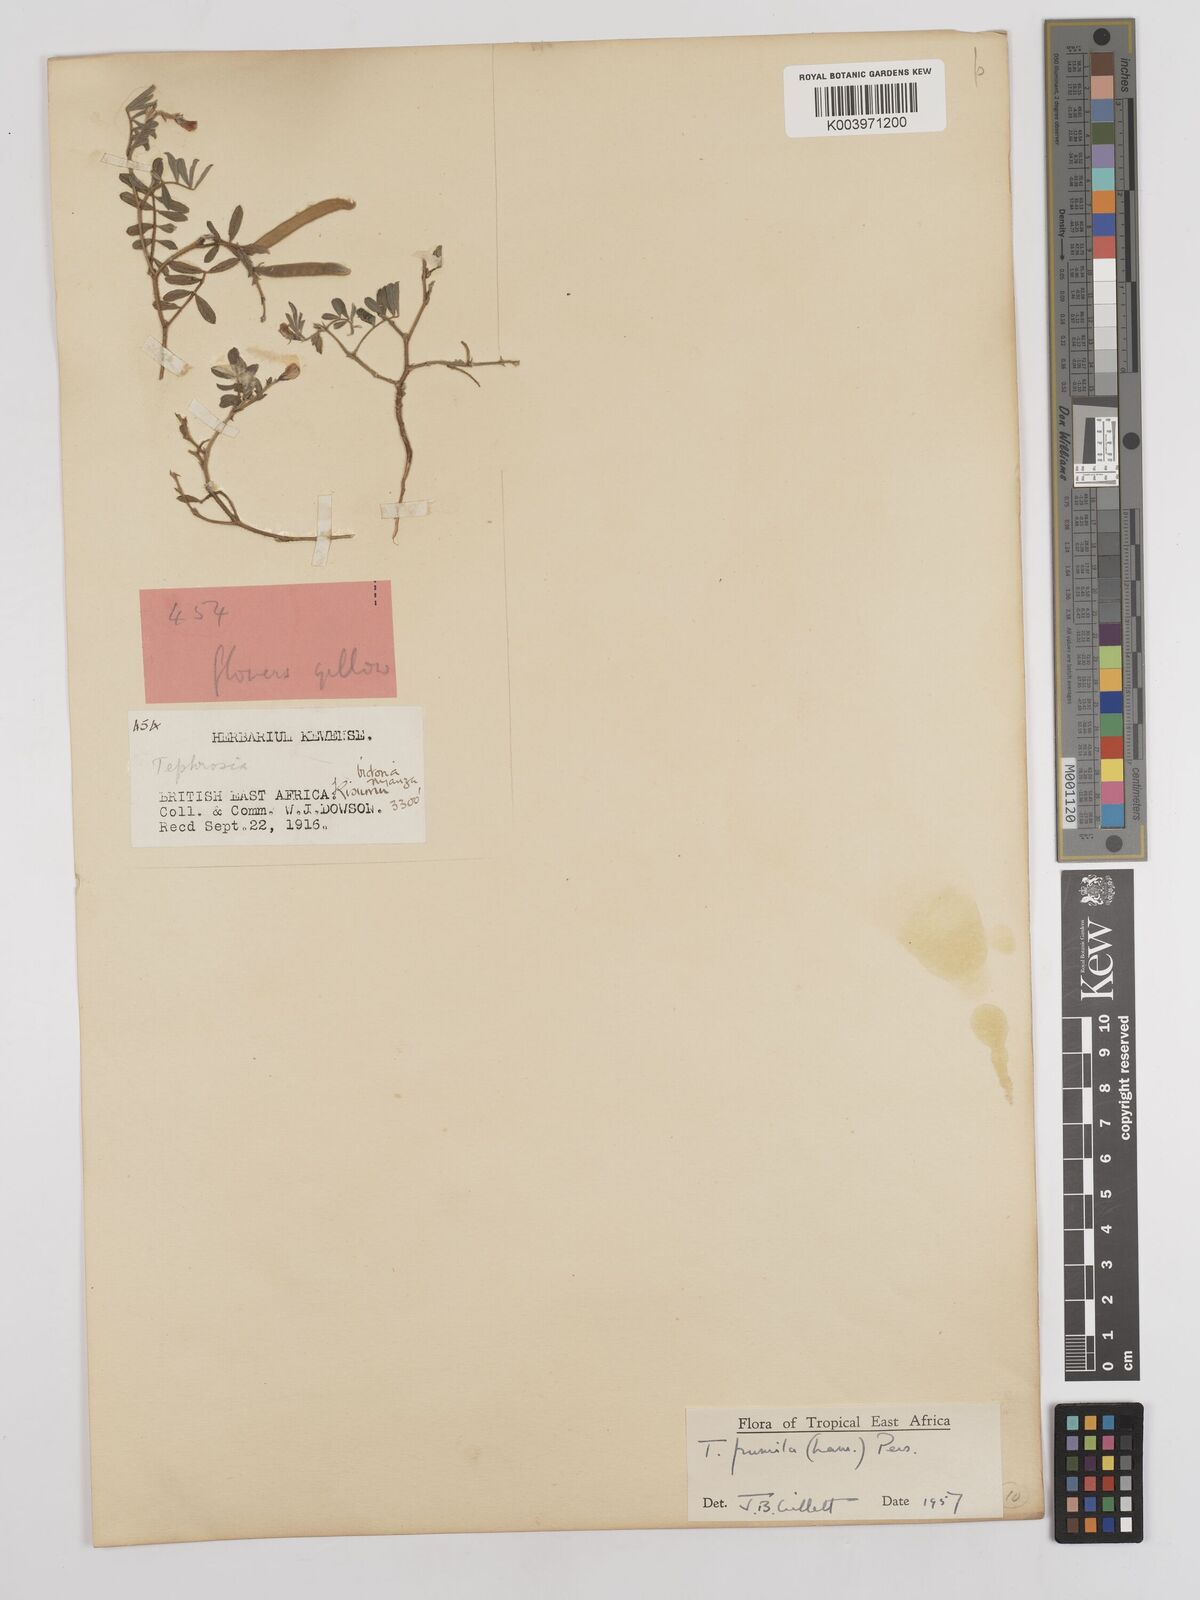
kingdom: Plantae
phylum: Tracheophyta
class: Magnoliopsida
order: Fabales
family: Fabaceae
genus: Tephrosia
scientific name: Tephrosia pumila
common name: Indigo sauvage
